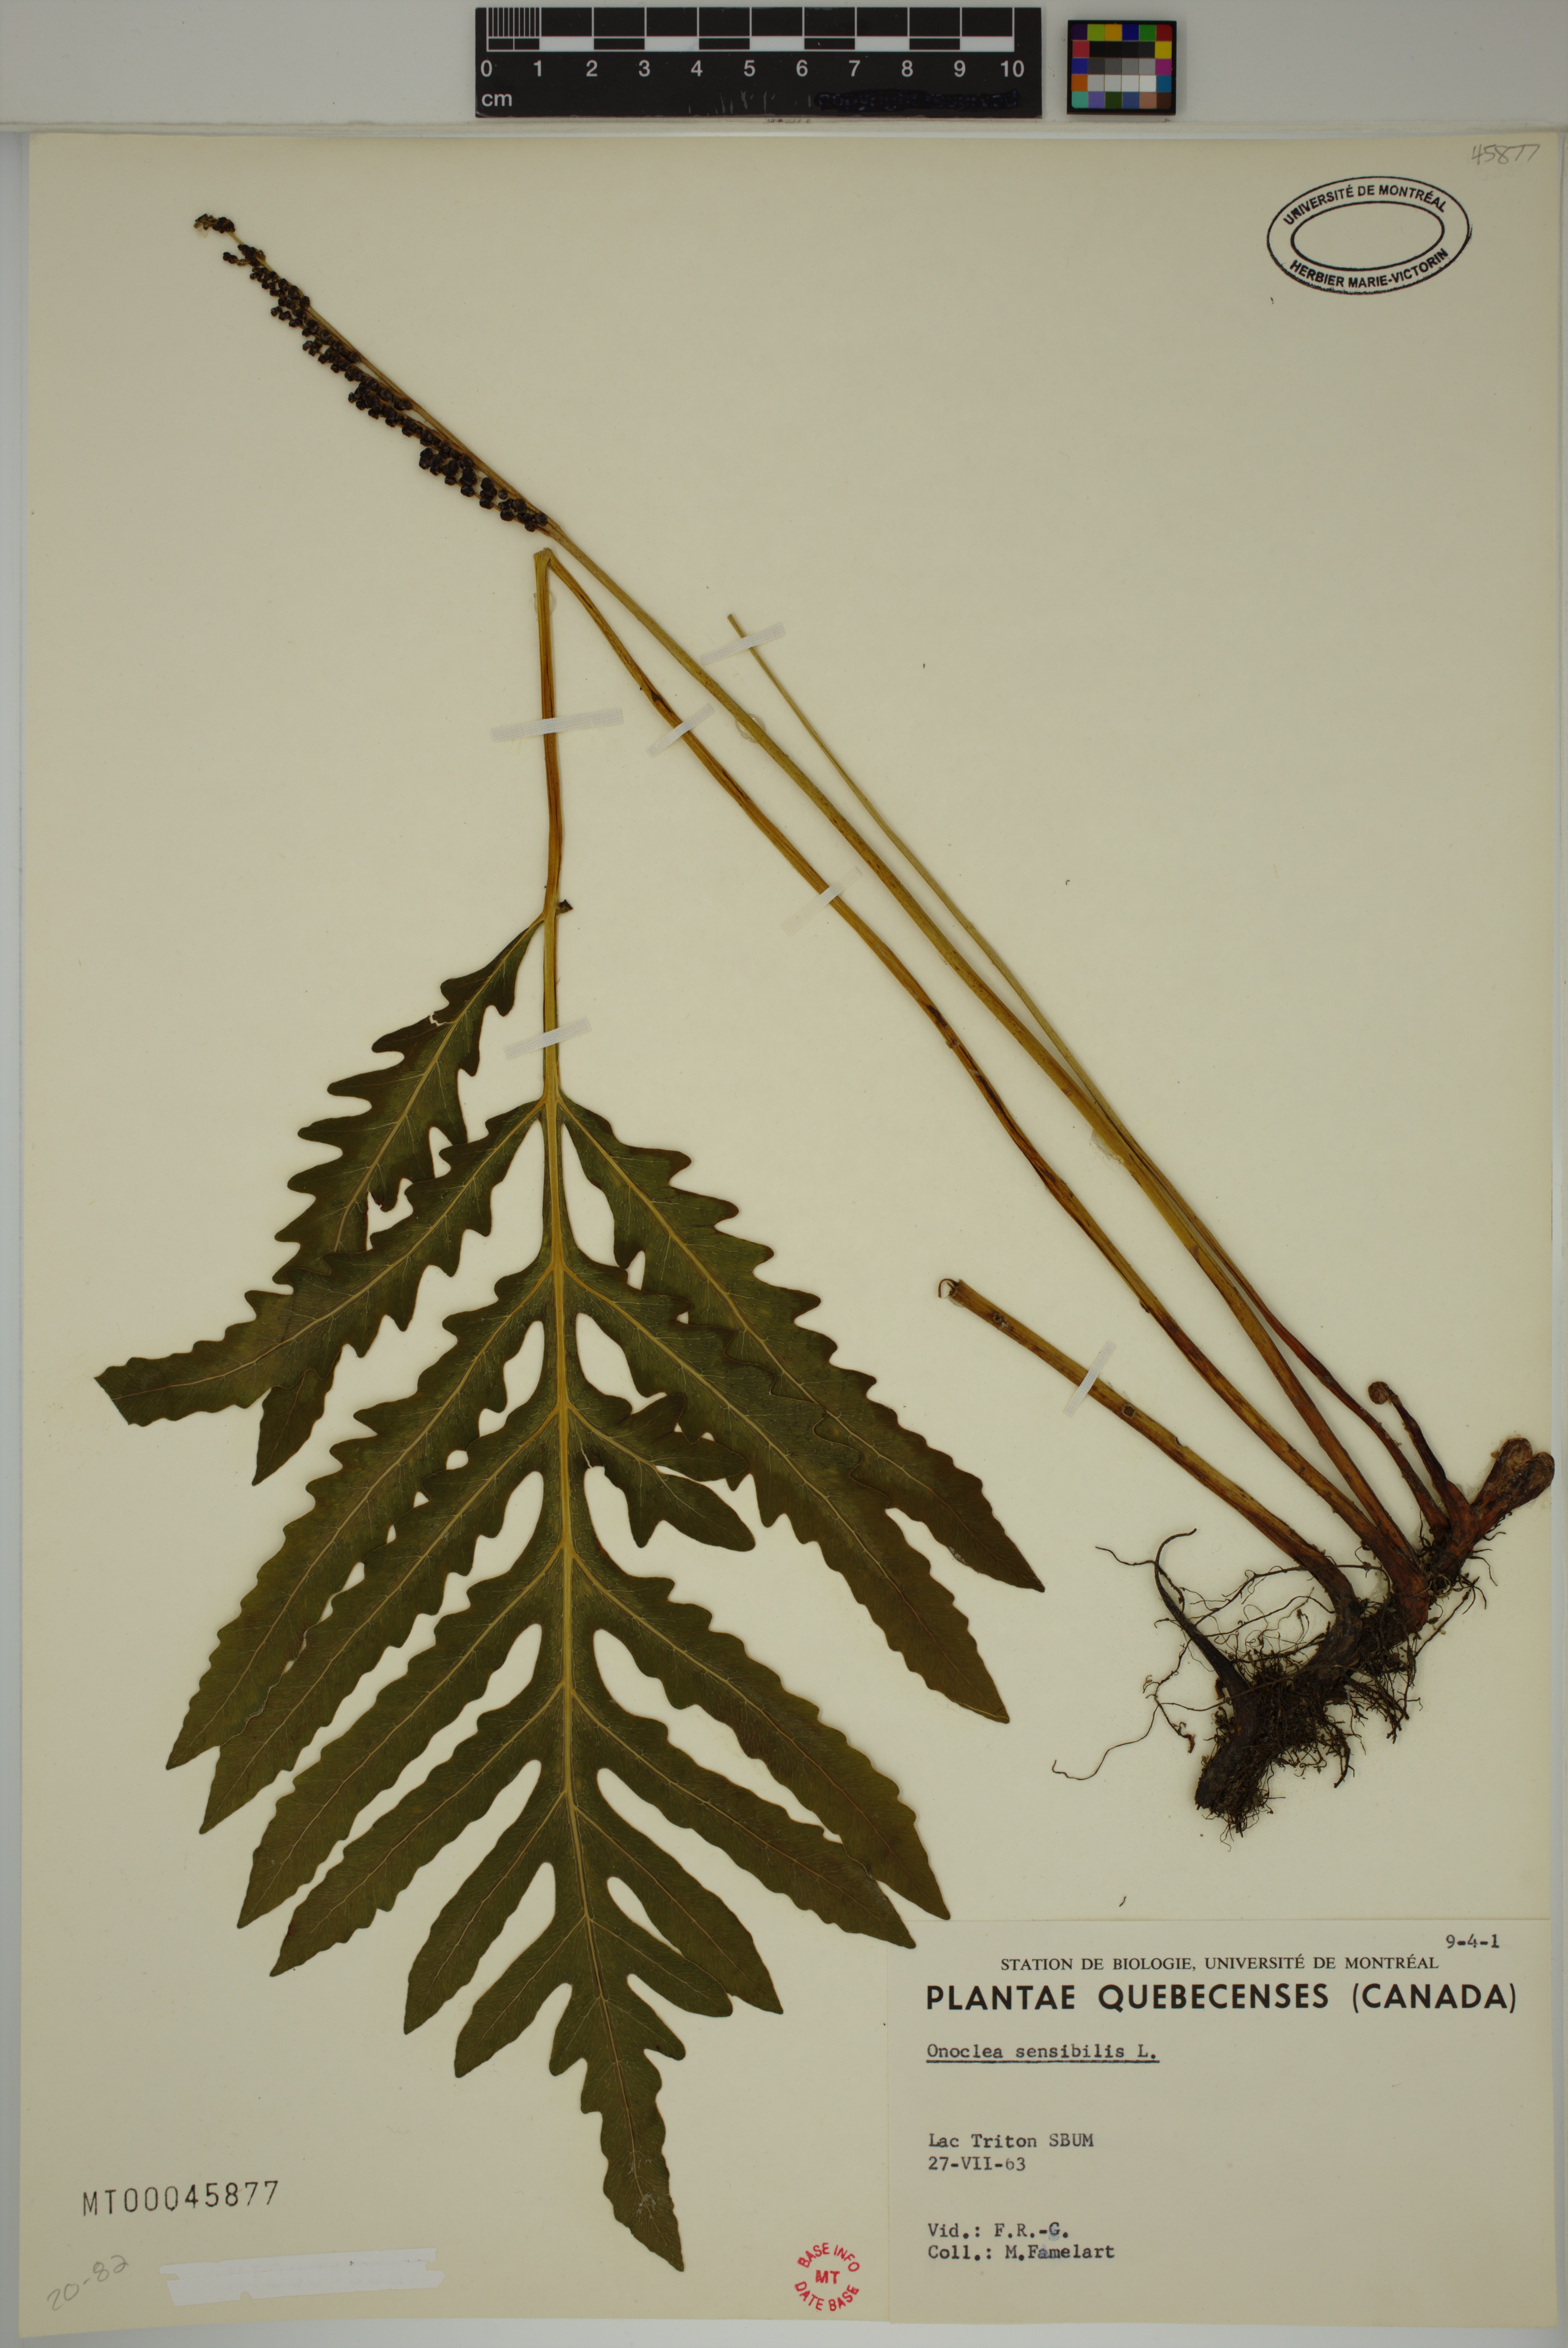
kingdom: Plantae
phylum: Tracheophyta
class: Polypodiopsida
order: Polypodiales
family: Onocleaceae
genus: Onoclea
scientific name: Onoclea sensibilis
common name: Sensitive fern
